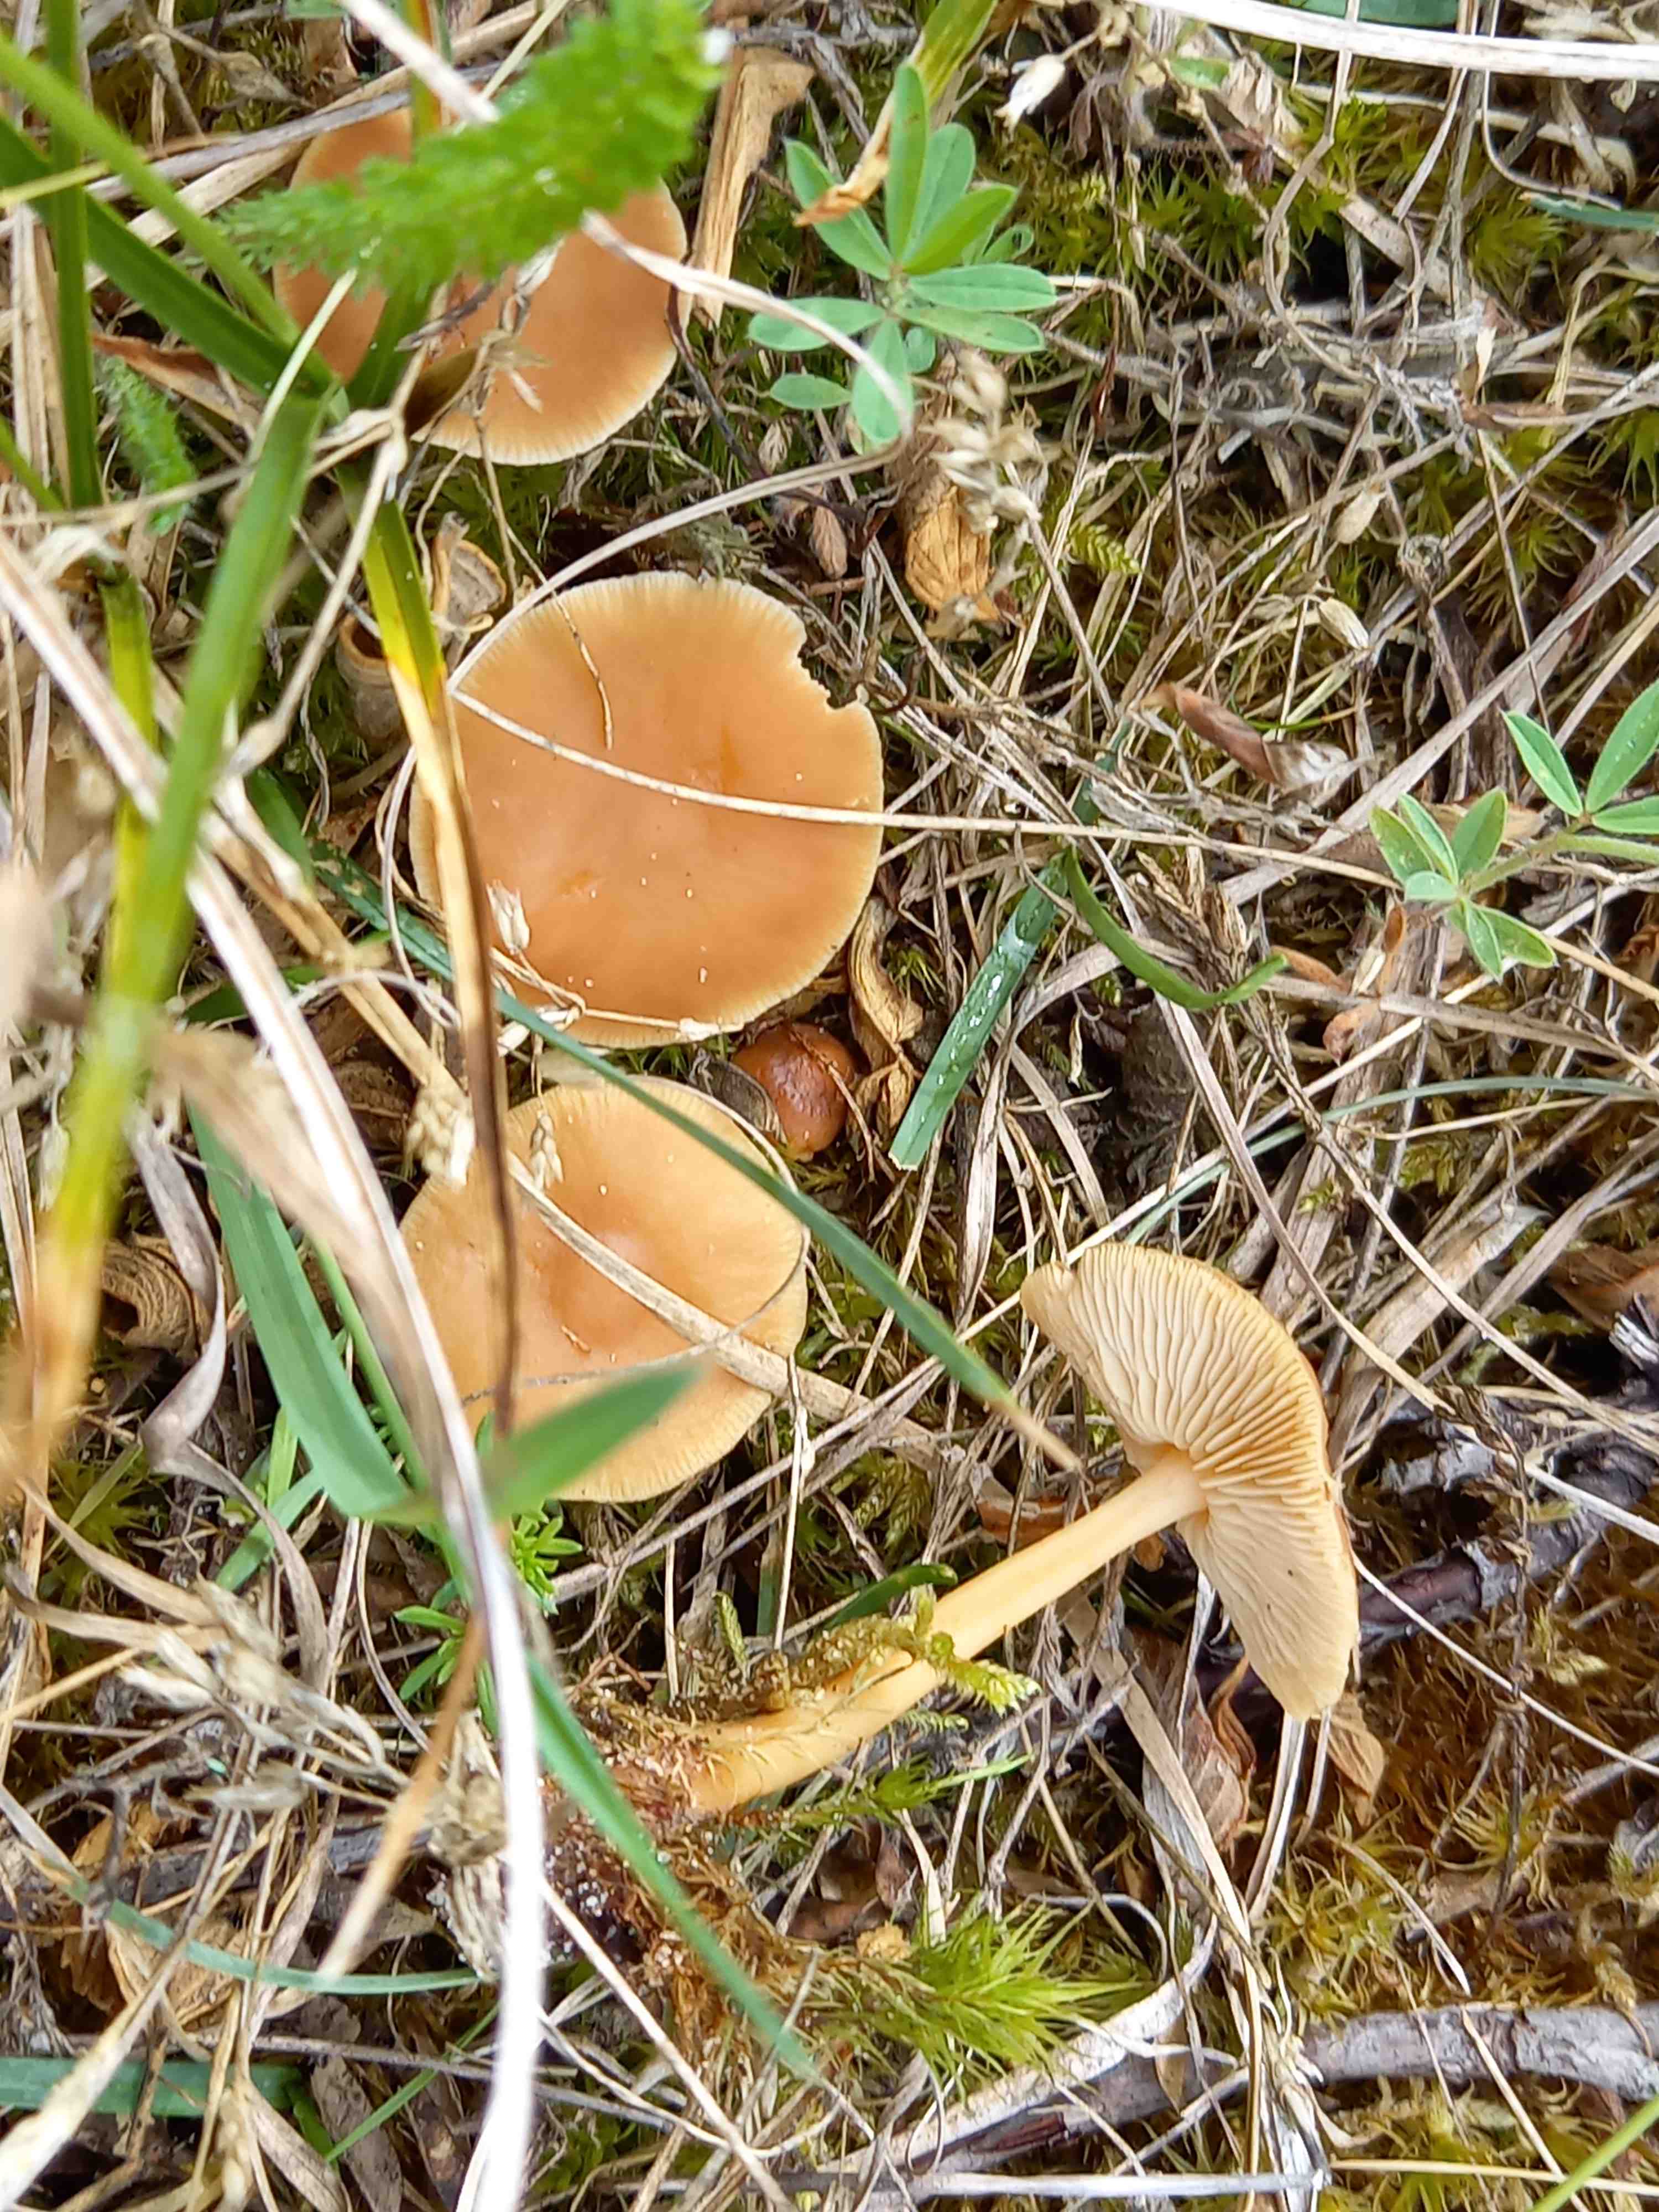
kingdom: Fungi
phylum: Basidiomycota
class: Agaricomycetes
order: Agaricales
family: Marasmiaceae
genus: Marasmius
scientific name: Marasmius oreades
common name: elledans-bruskhat
